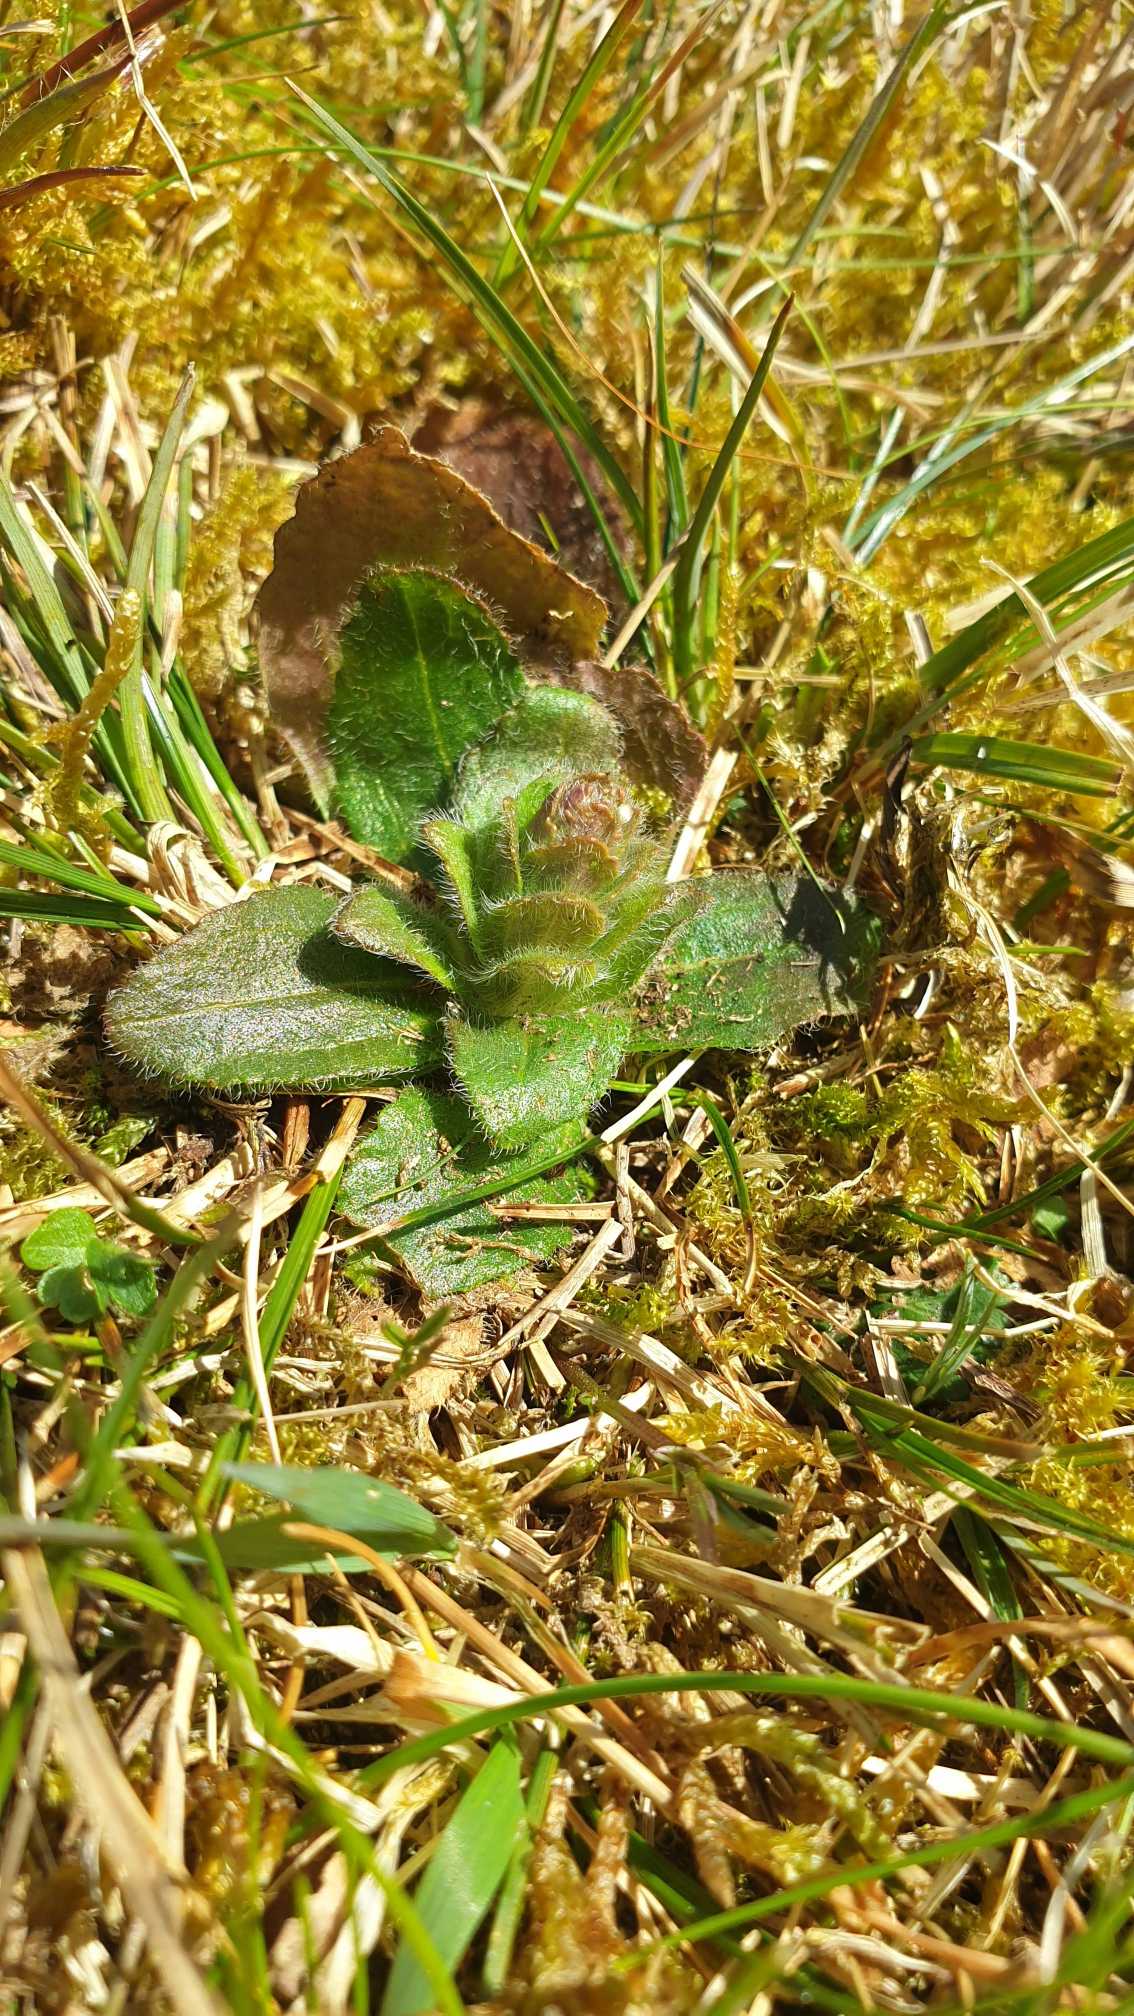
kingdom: Plantae
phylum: Tracheophyta
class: Magnoliopsida
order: Lamiales
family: Lamiaceae
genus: Ajuga
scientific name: Ajuga pyramidalis
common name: Pyramide-læbeløs
